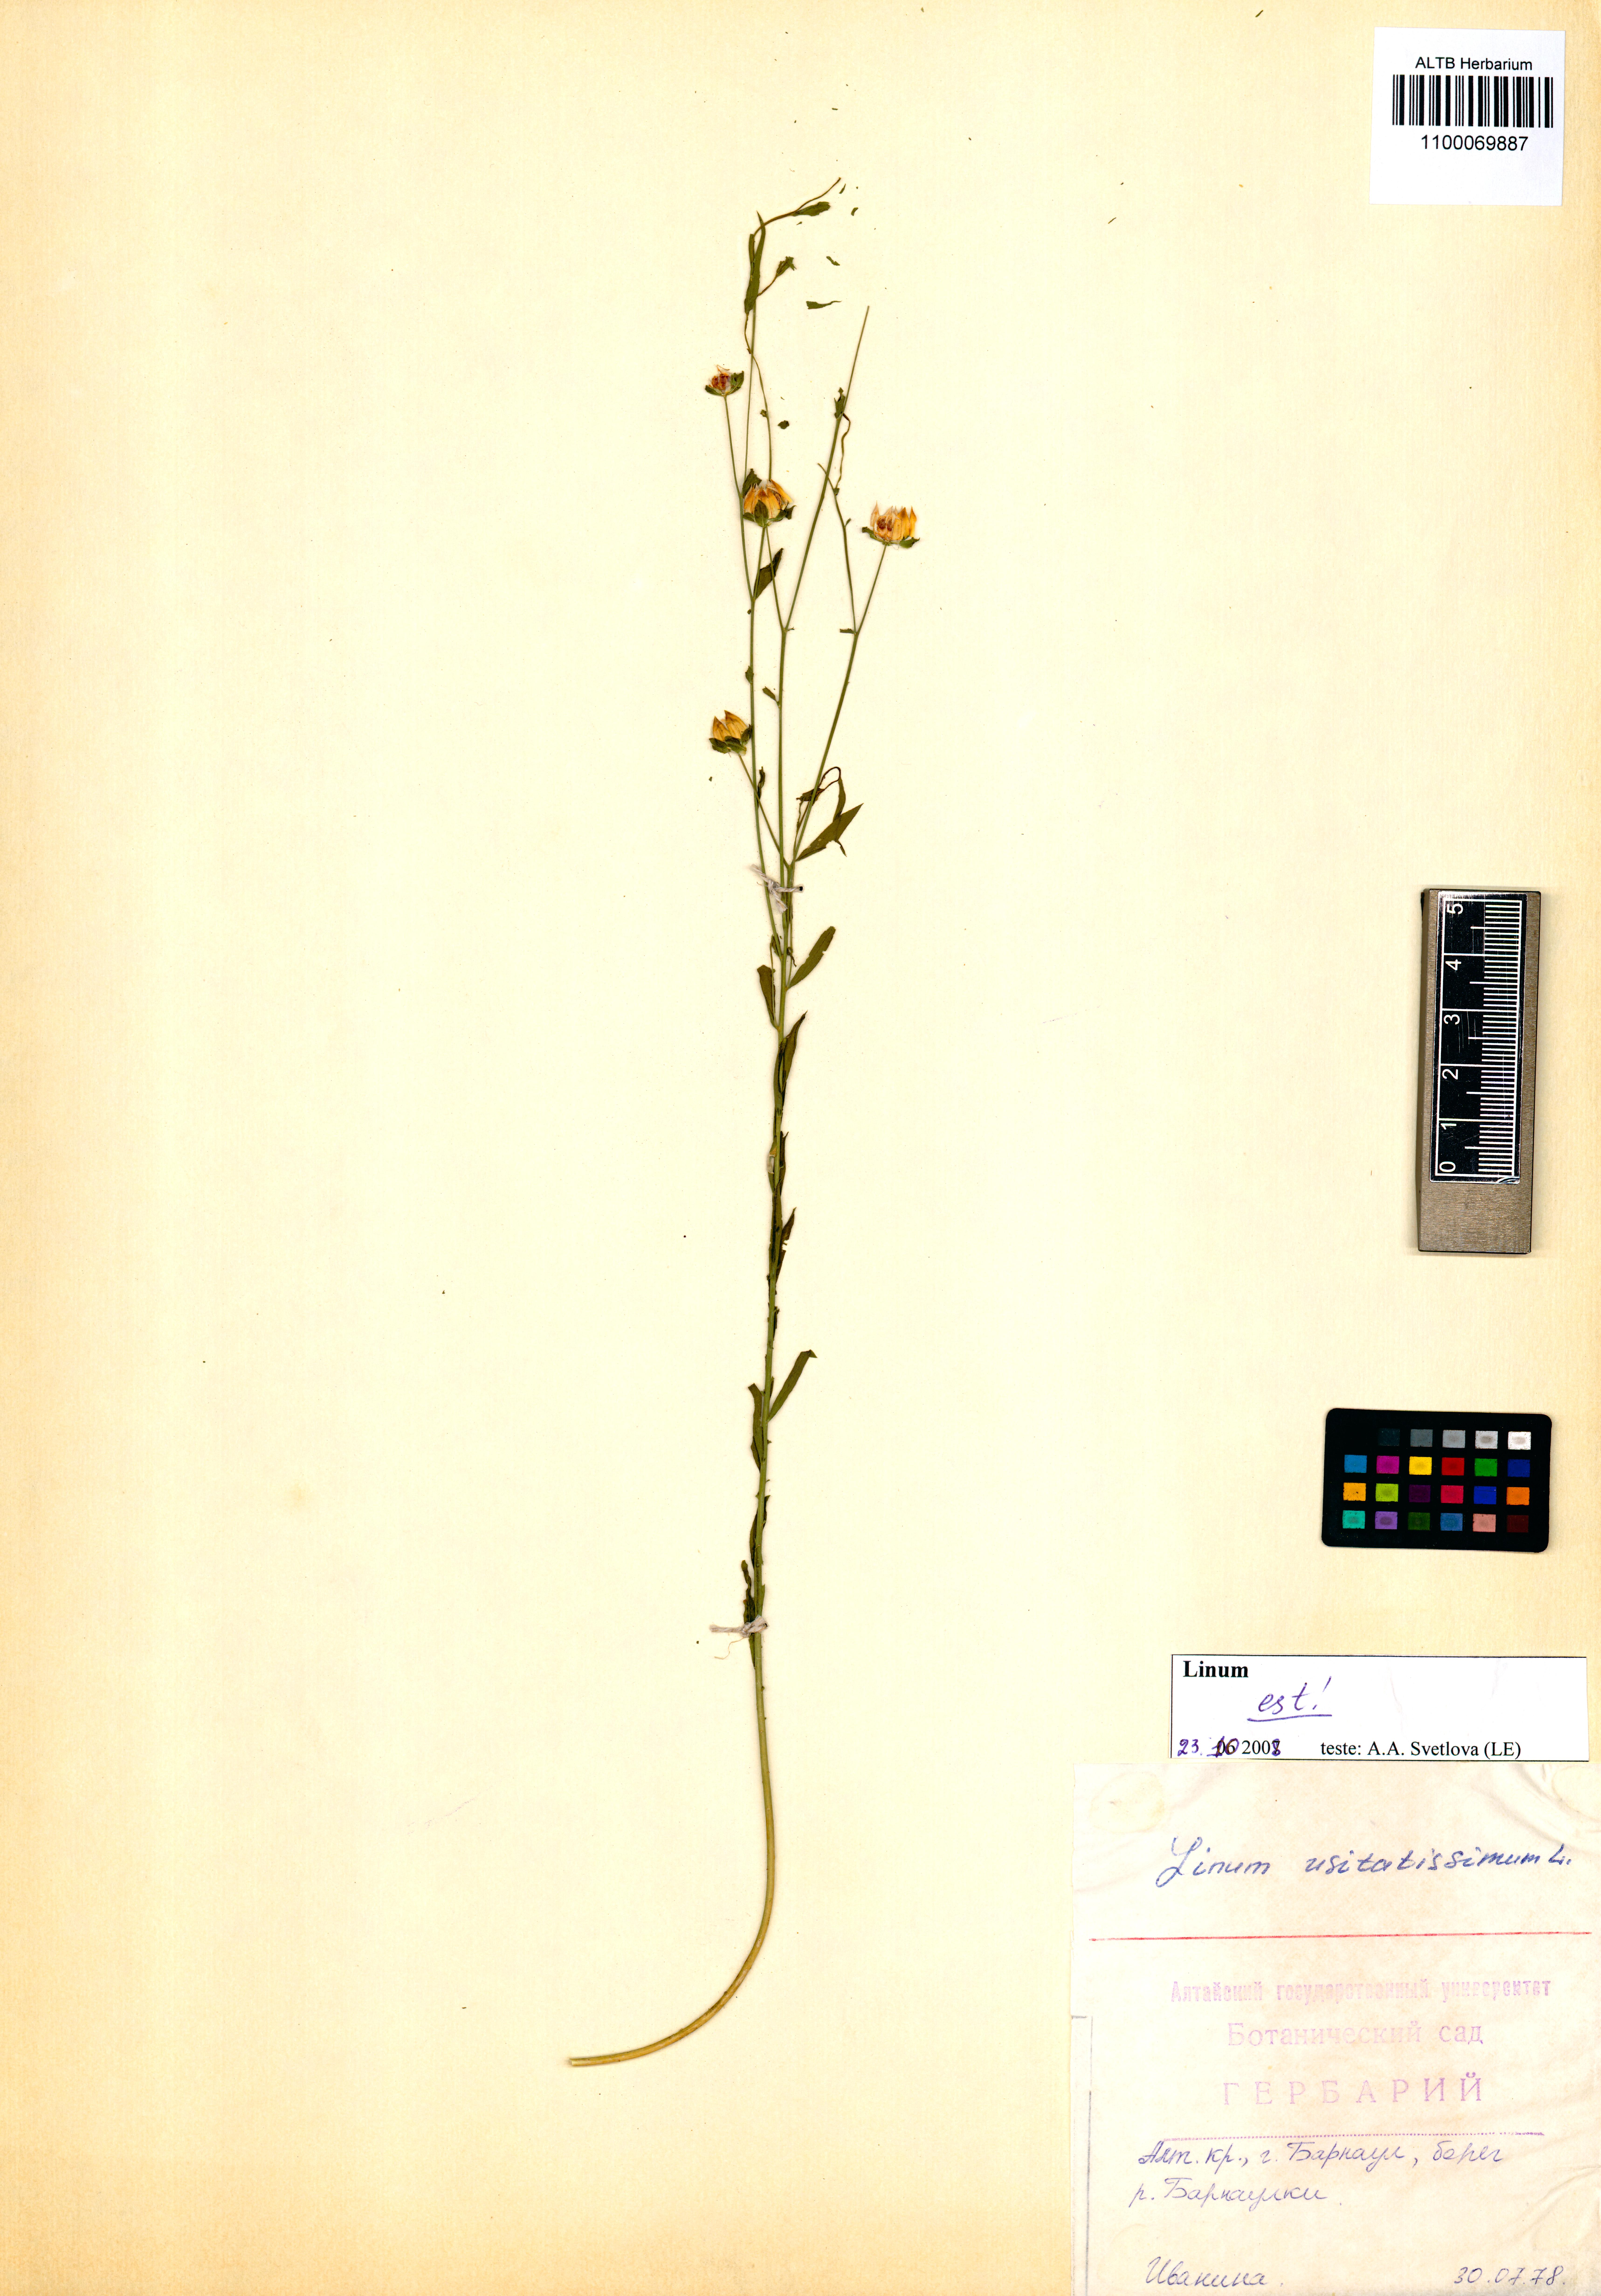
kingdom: Plantae
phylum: Tracheophyta
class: Magnoliopsida
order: Malpighiales
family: Linaceae
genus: Linum
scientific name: Linum usitatissimum
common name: Flax
